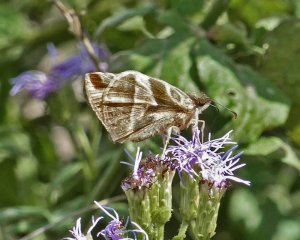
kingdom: Animalia
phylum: Arthropoda
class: Insecta
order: Lepidoptera
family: Hesperiidae
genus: Heliopetes
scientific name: Heliopetes laviana
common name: Laviana White-Skipper
